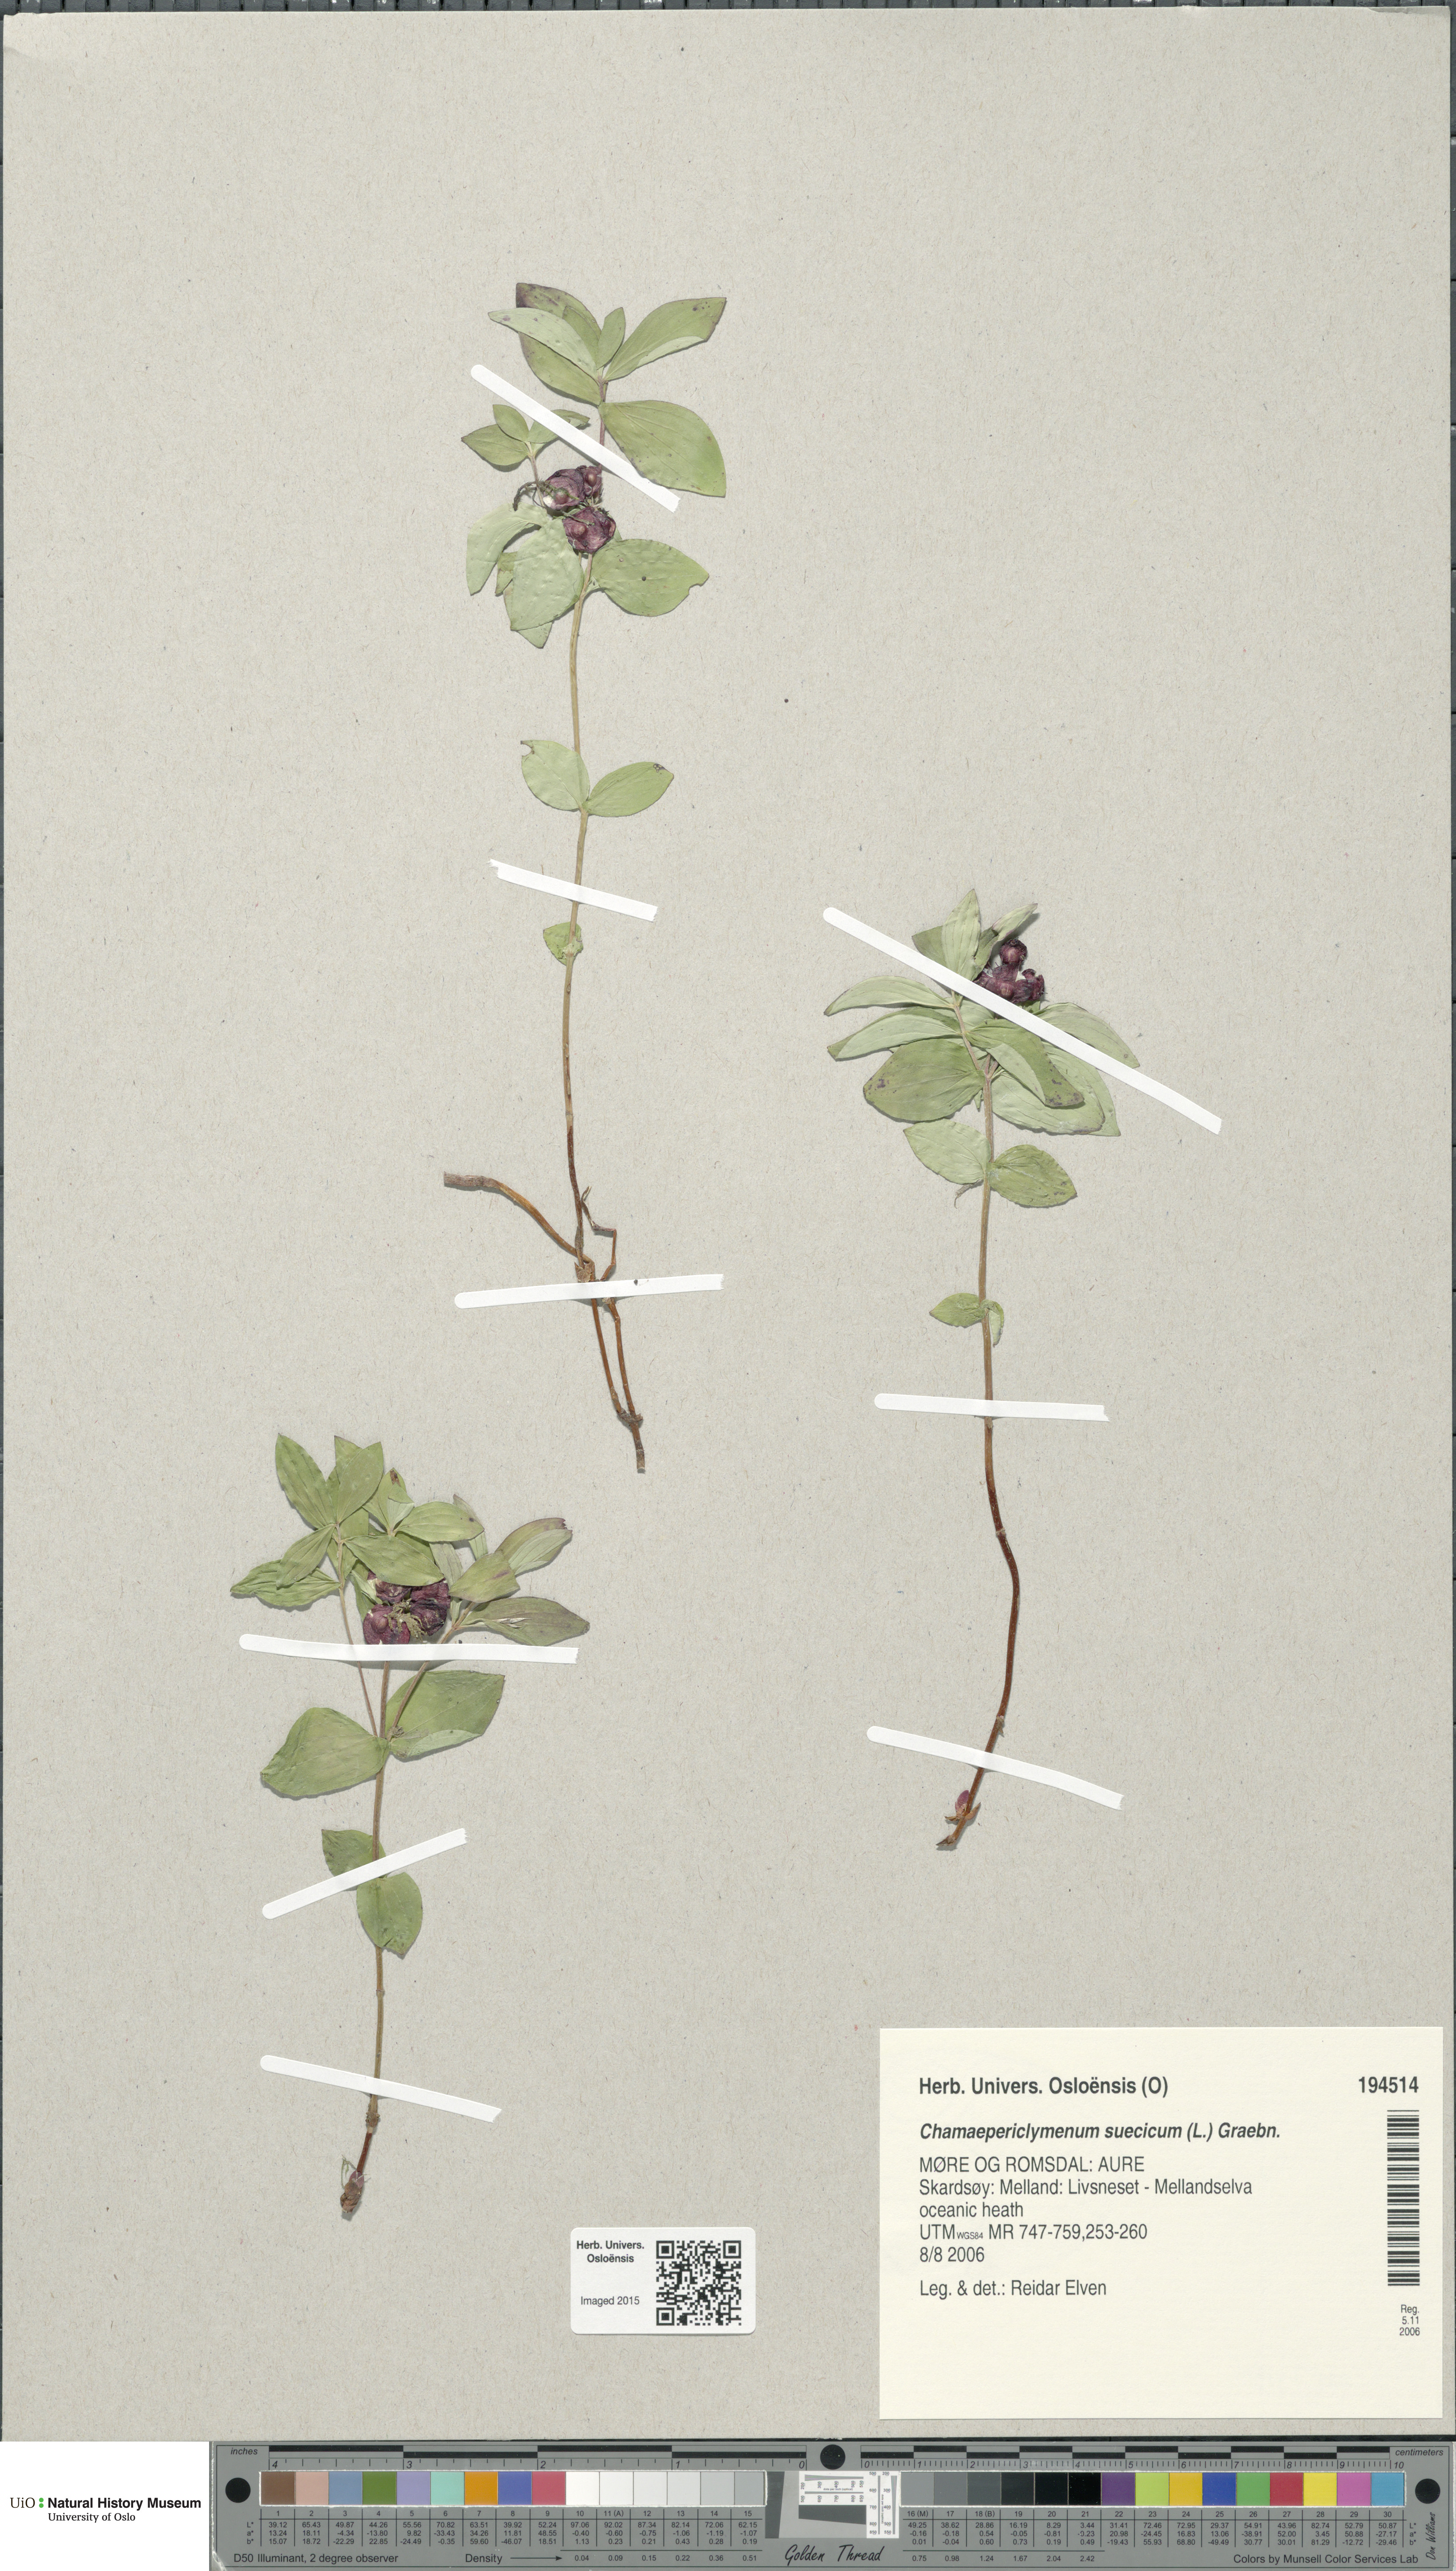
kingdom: Plantae
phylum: Tracheophyta
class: Magnoliopsida
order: Cornales
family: Cornaceae
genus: Cornus
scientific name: Cornus suecica
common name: Dwarf cornel
